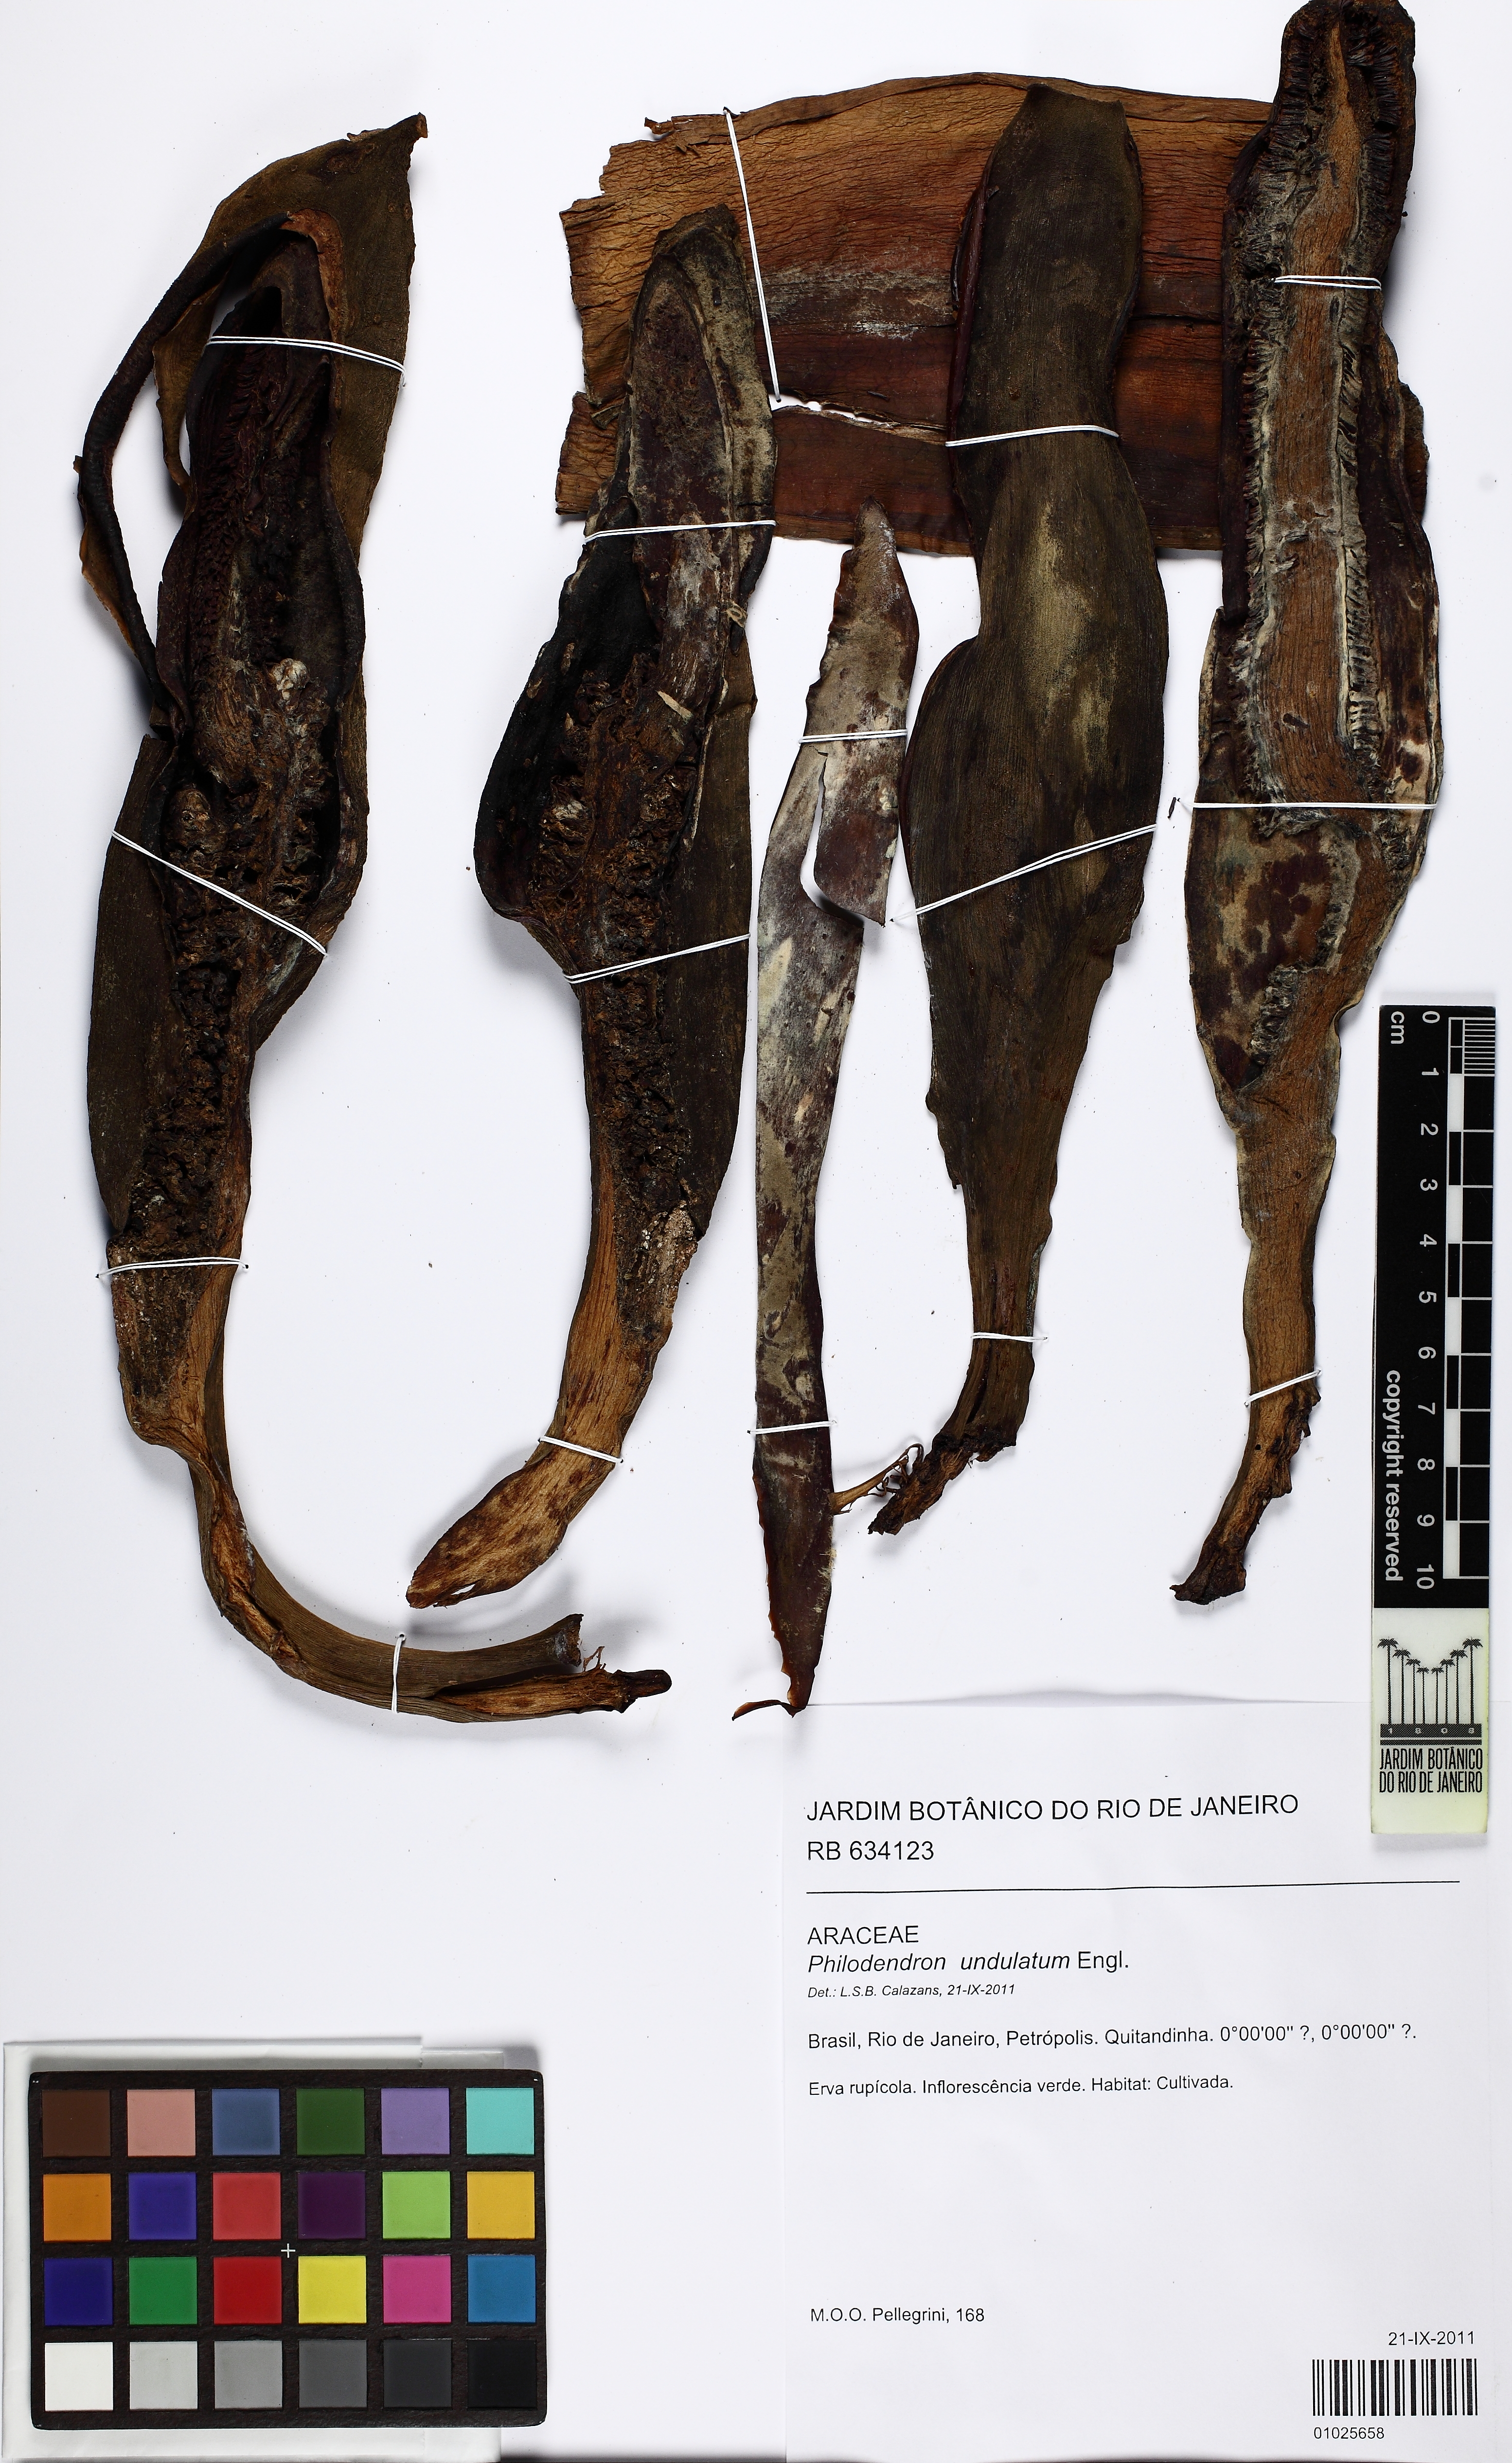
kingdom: Plantae
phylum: Tracheophyta
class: Liliopsida
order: Alismatales
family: Araceae
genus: Thaumatophyllum
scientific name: Thaumatophyllum undulatum
